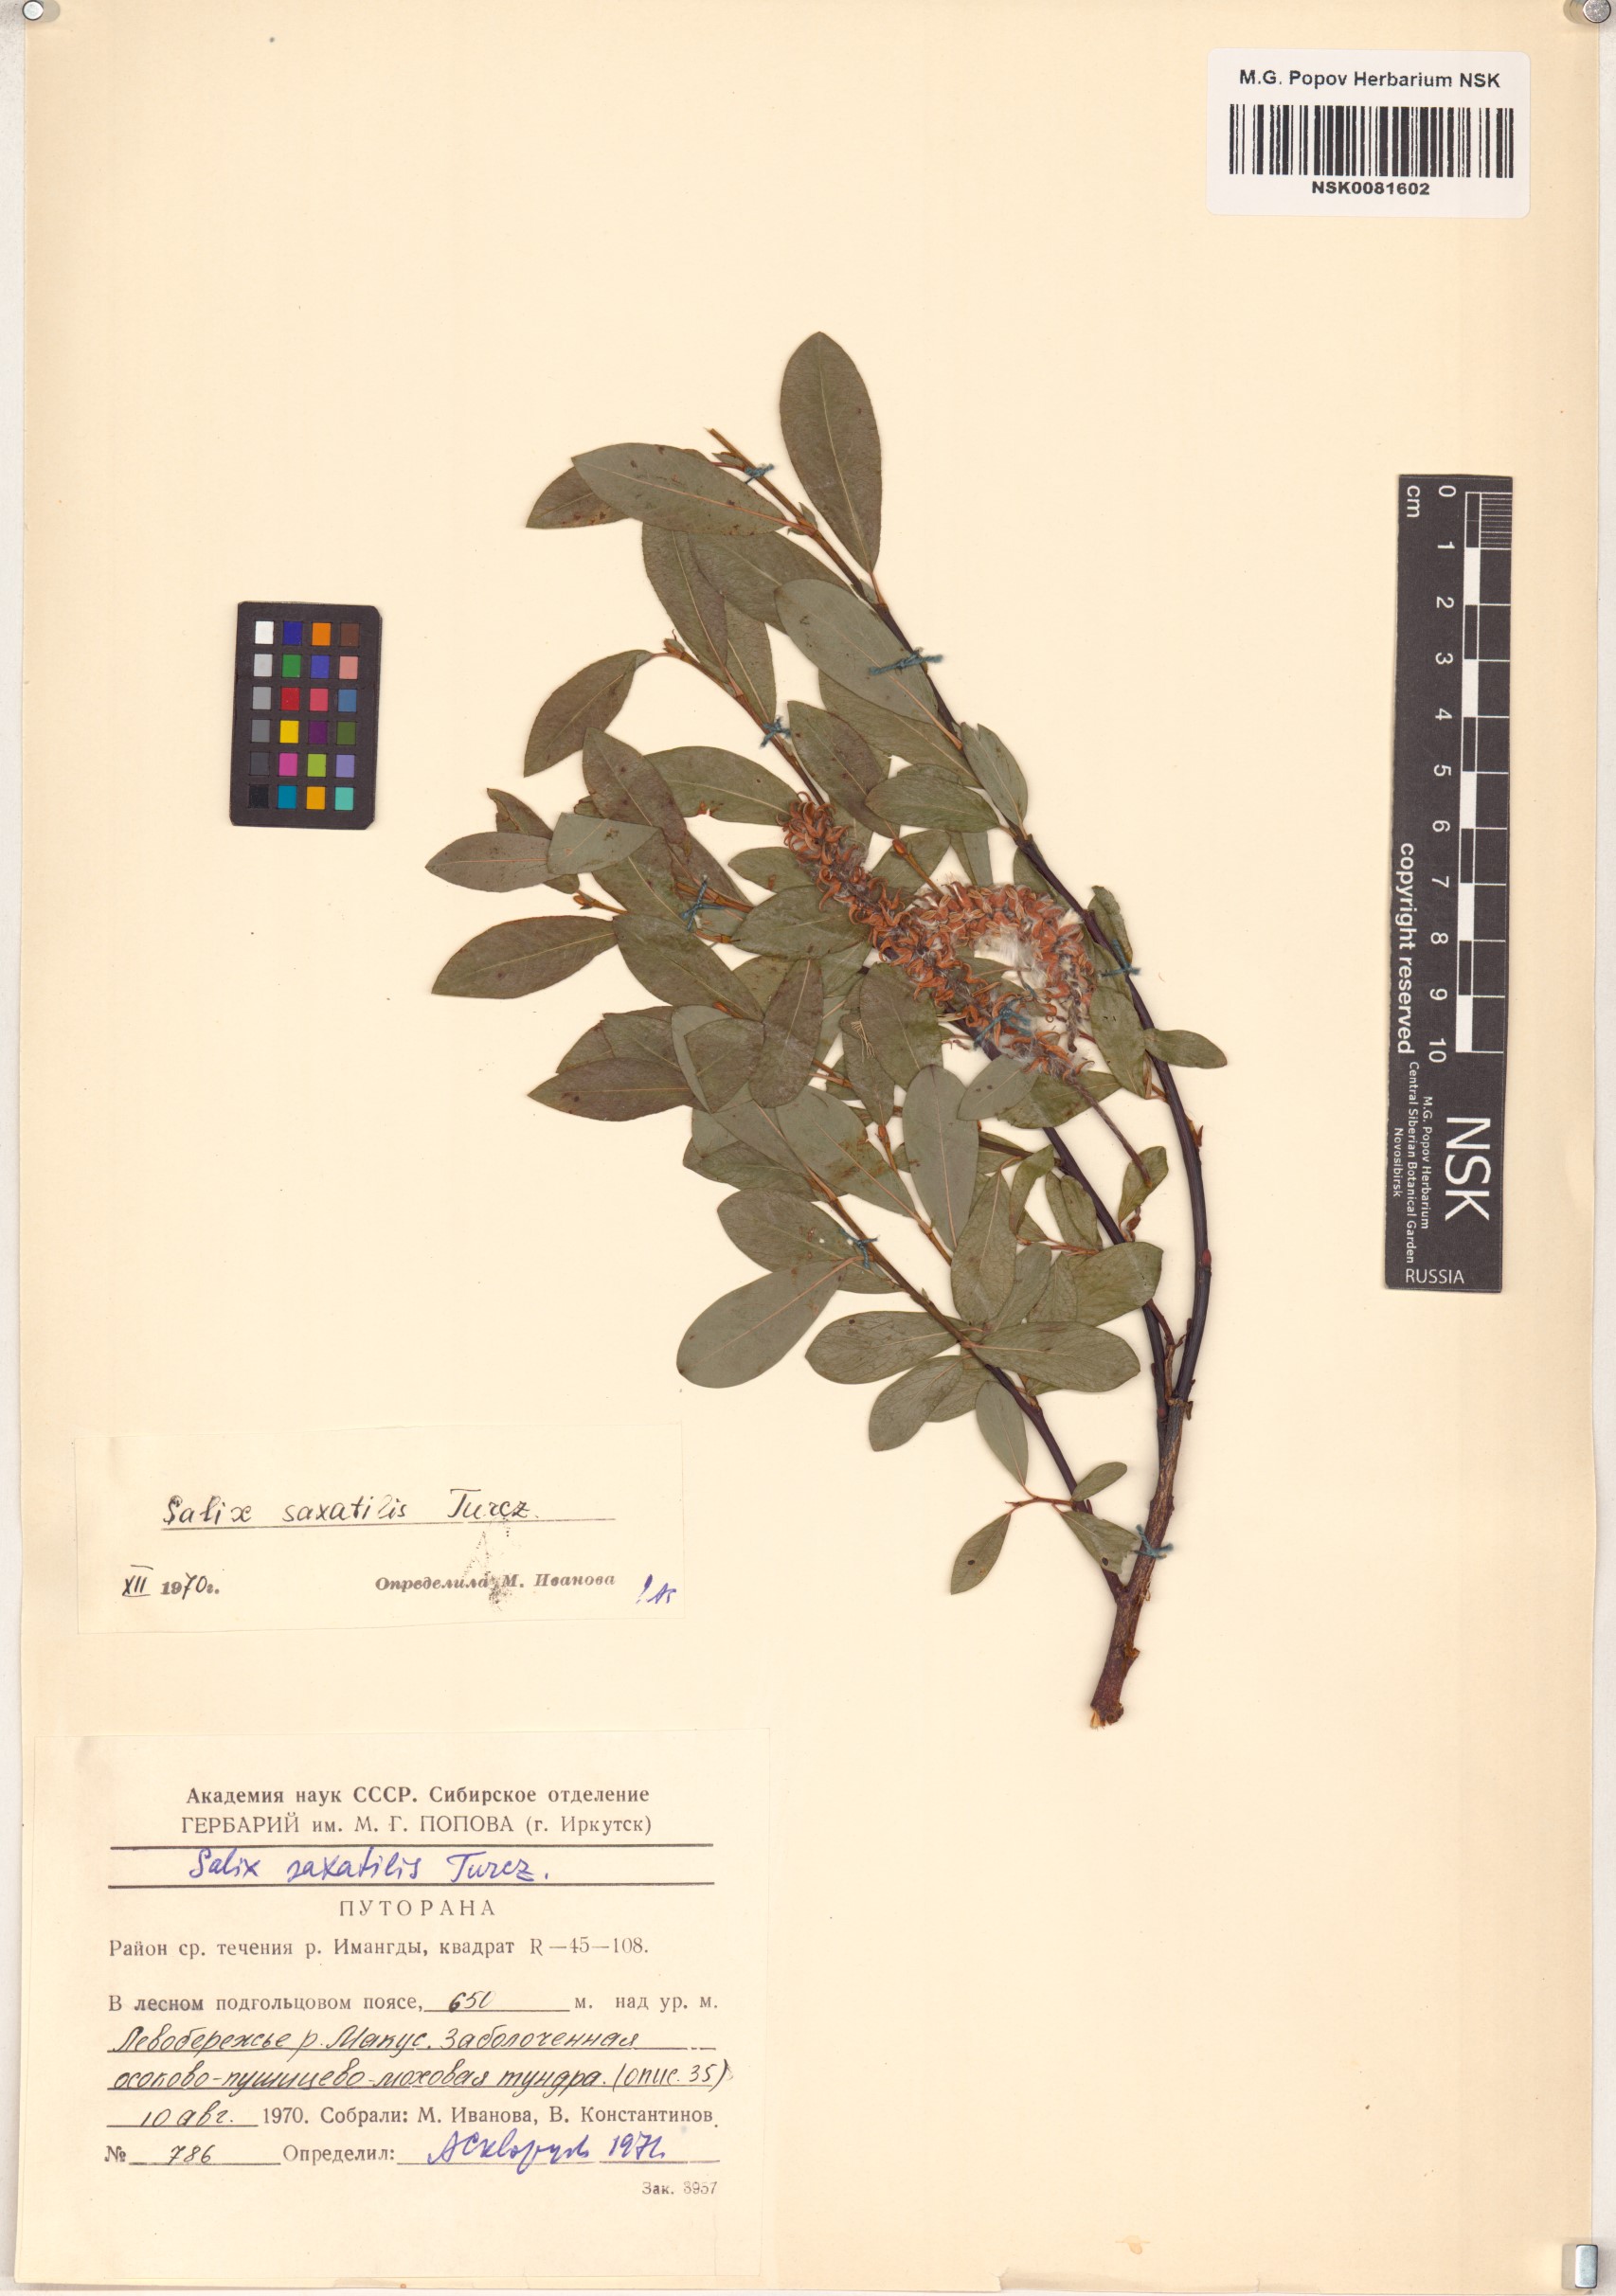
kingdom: Plantae
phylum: Tracheophyta
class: Magnoliopsida
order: Malpighiales
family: Salicaceae
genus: Salix
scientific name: Salix saxatilis
